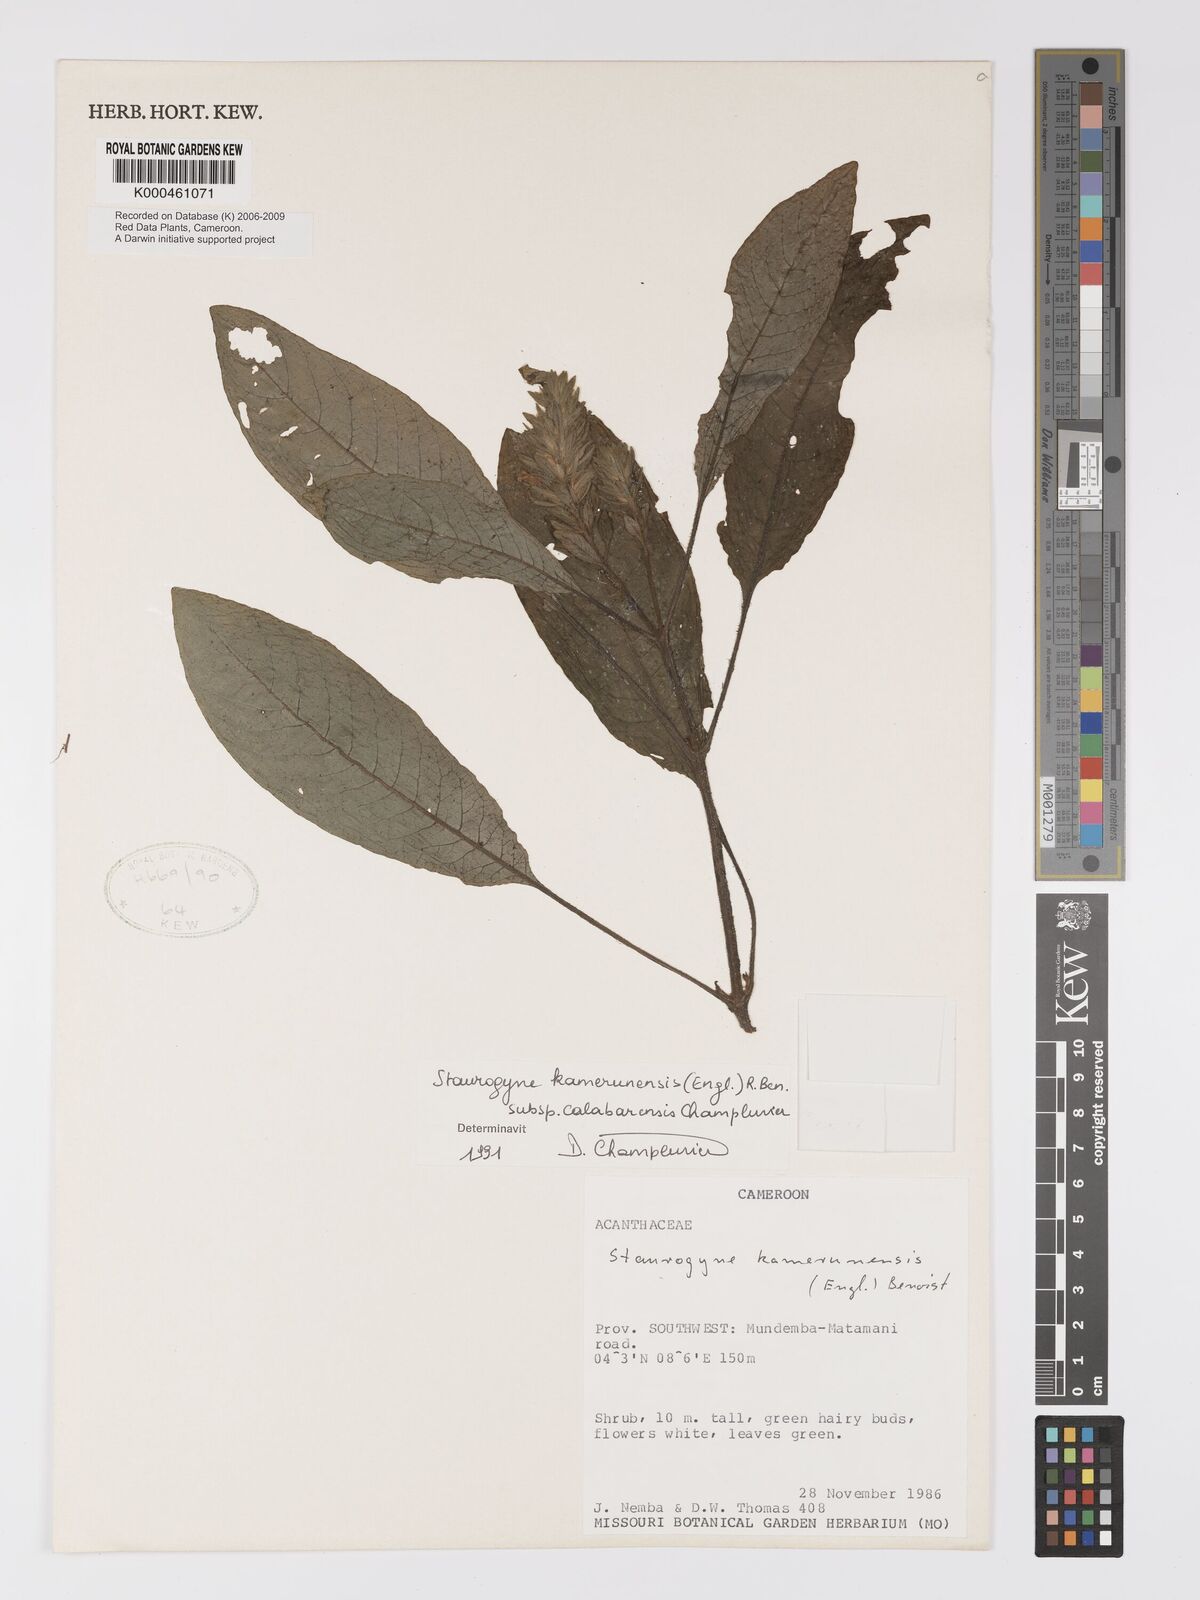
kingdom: Plantae
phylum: Tracheophyta
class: Magnoliopsida
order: Lamiales
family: Acanthaceae
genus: Staurogyne
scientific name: Staurogyne kamerunensis
